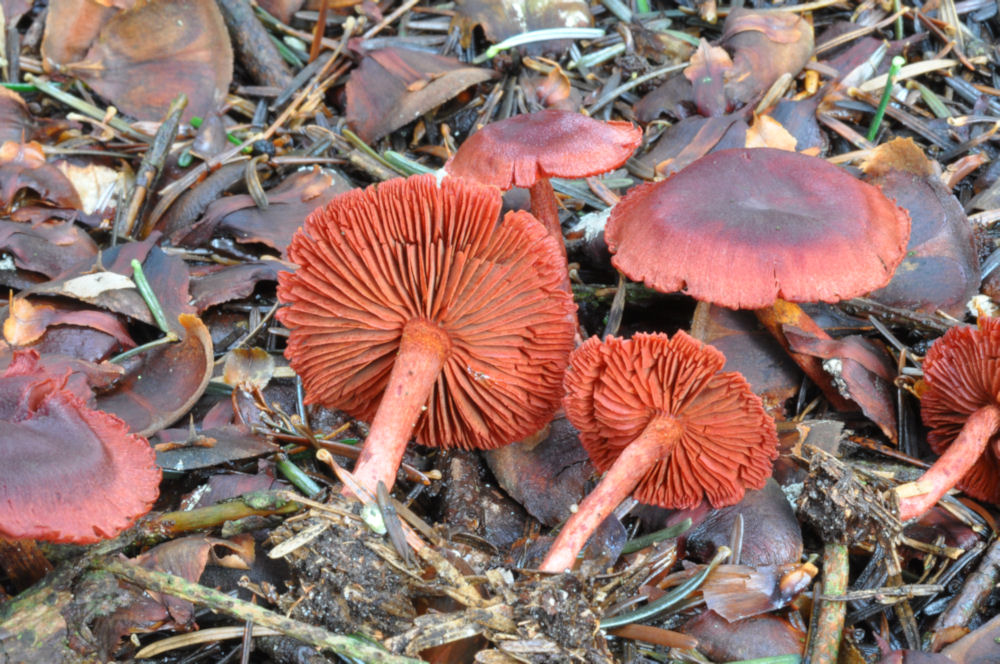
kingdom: Fungi
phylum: Basidiomycota
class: Agaricomycetes
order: Agaricales
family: Cortinariaceae
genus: Cortinarius
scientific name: Cortinarius sanguineus
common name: blodrød slørhat
